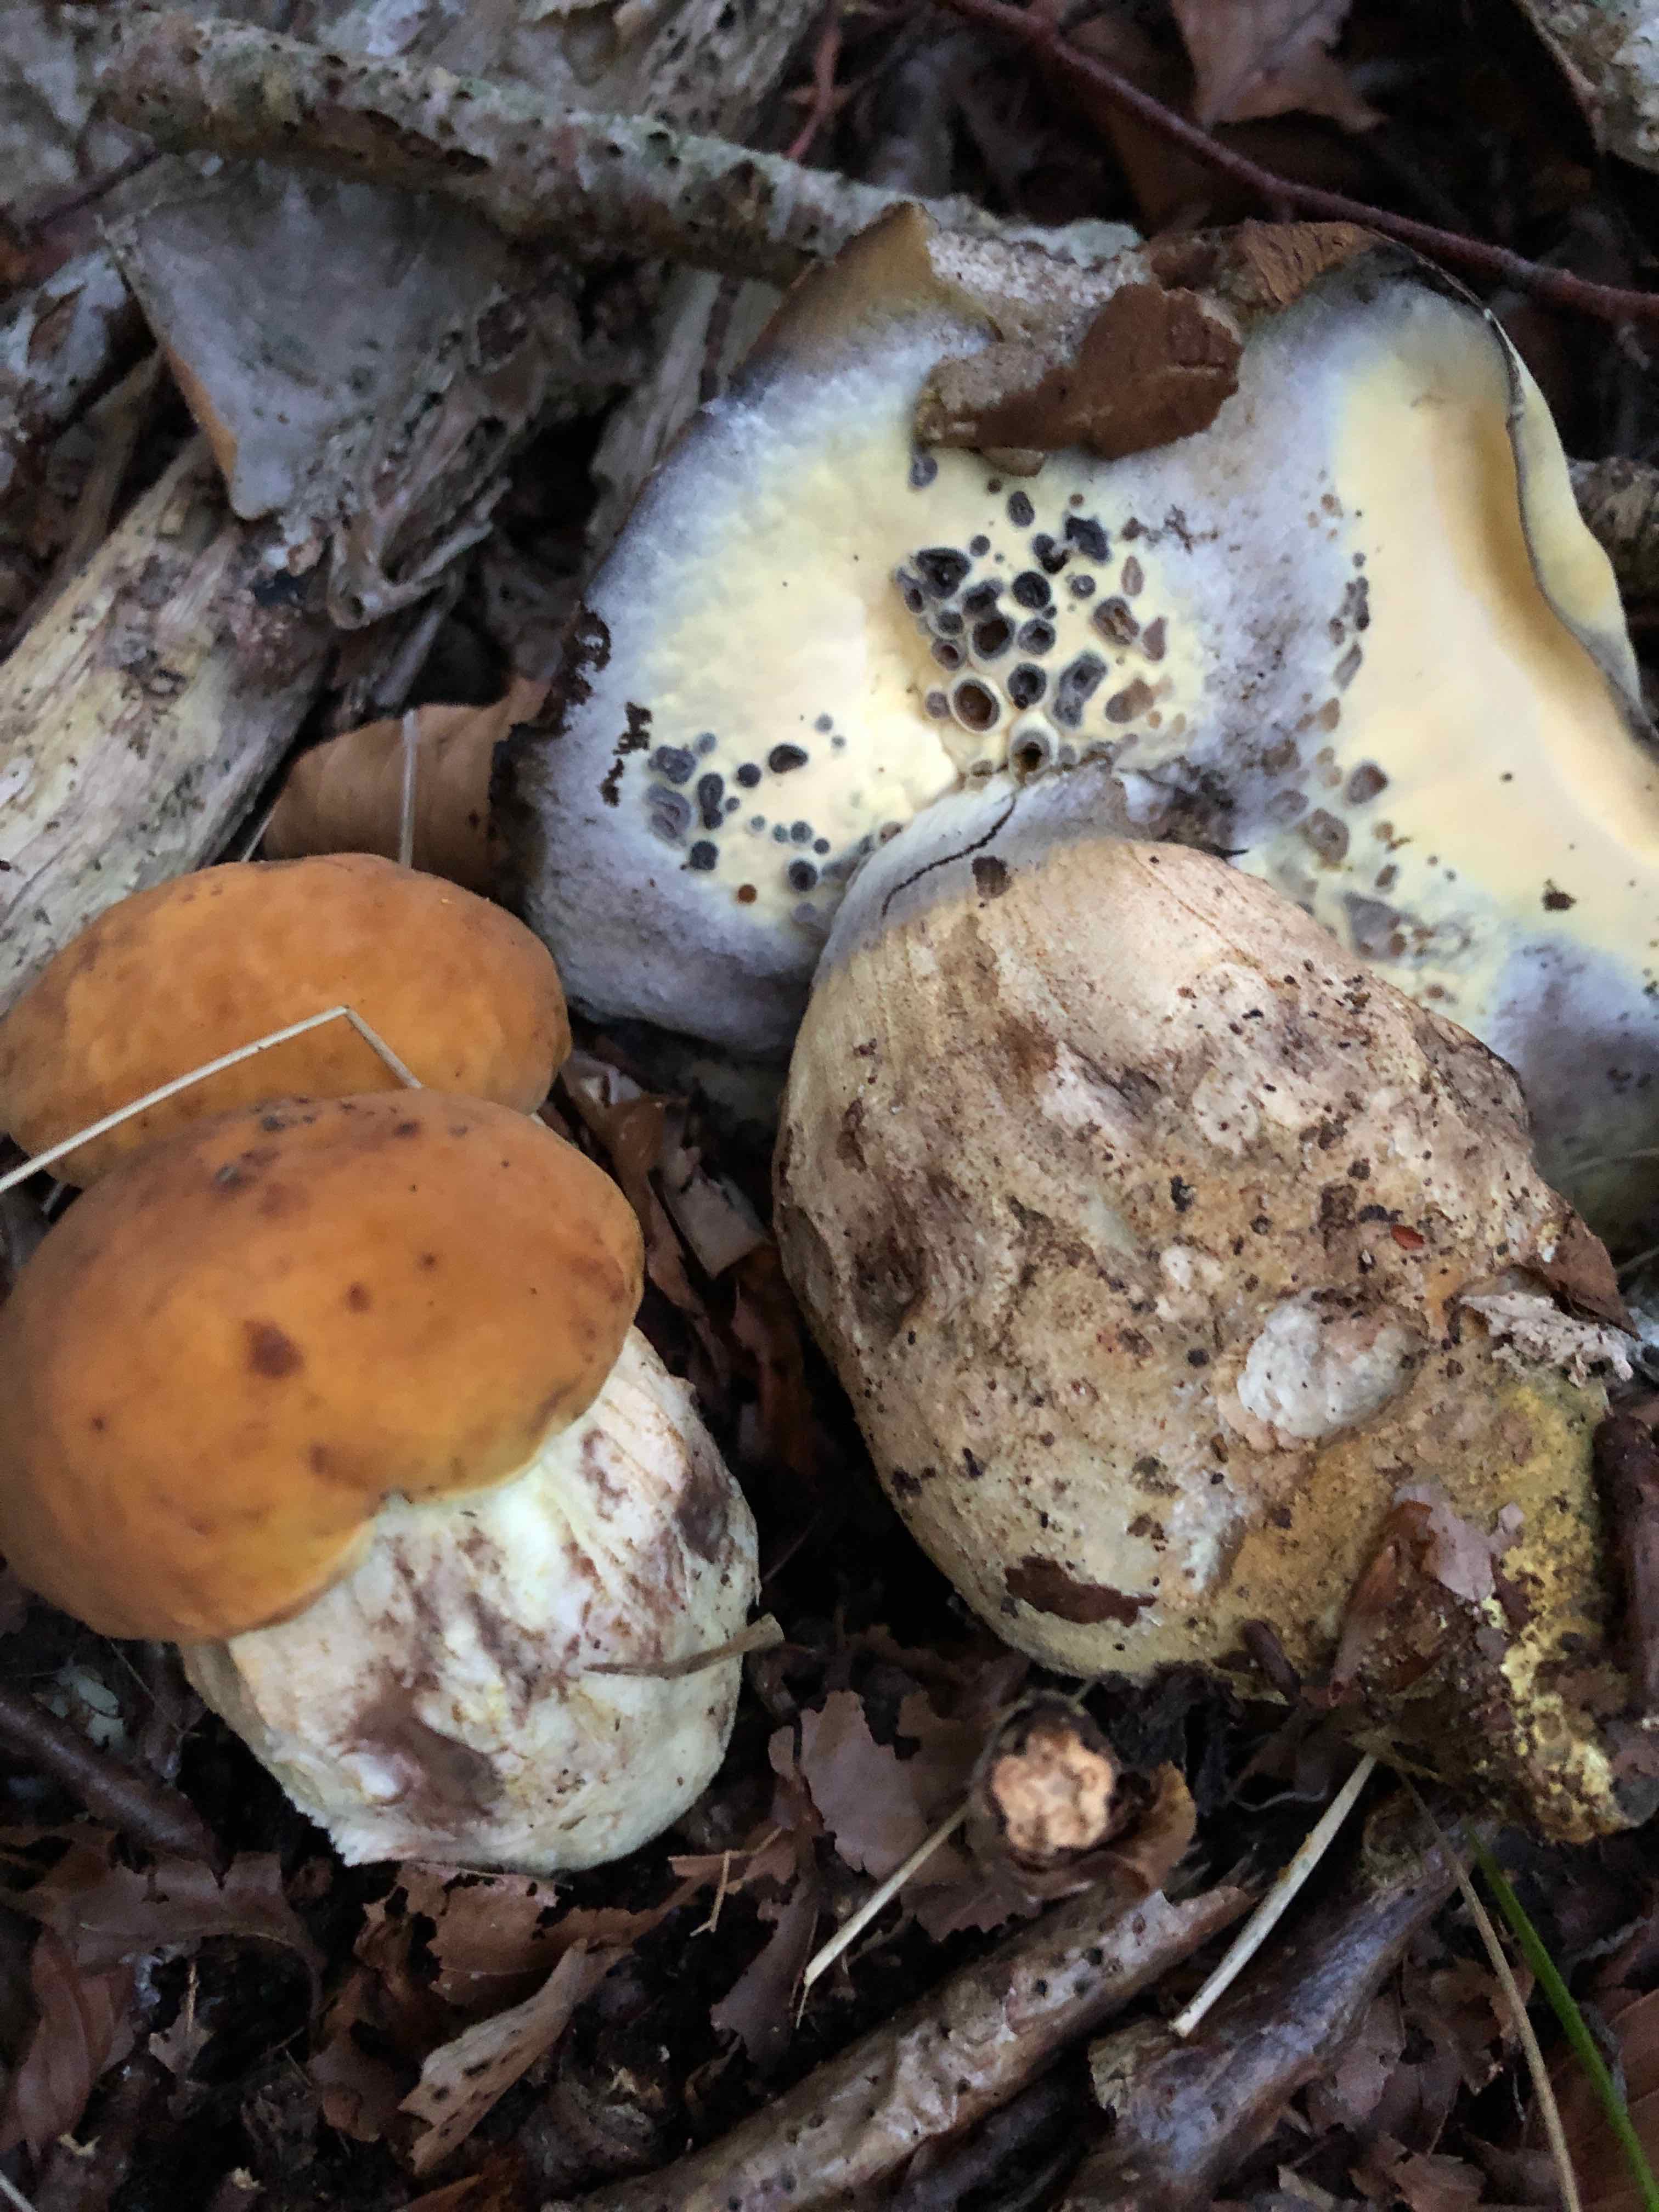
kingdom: Fungi
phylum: Basidiomycota
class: Agaricomycetes
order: Boletales
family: Boletaceae
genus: Leccinellum
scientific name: Leccinellum crocipodium
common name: gul skælrørhat
